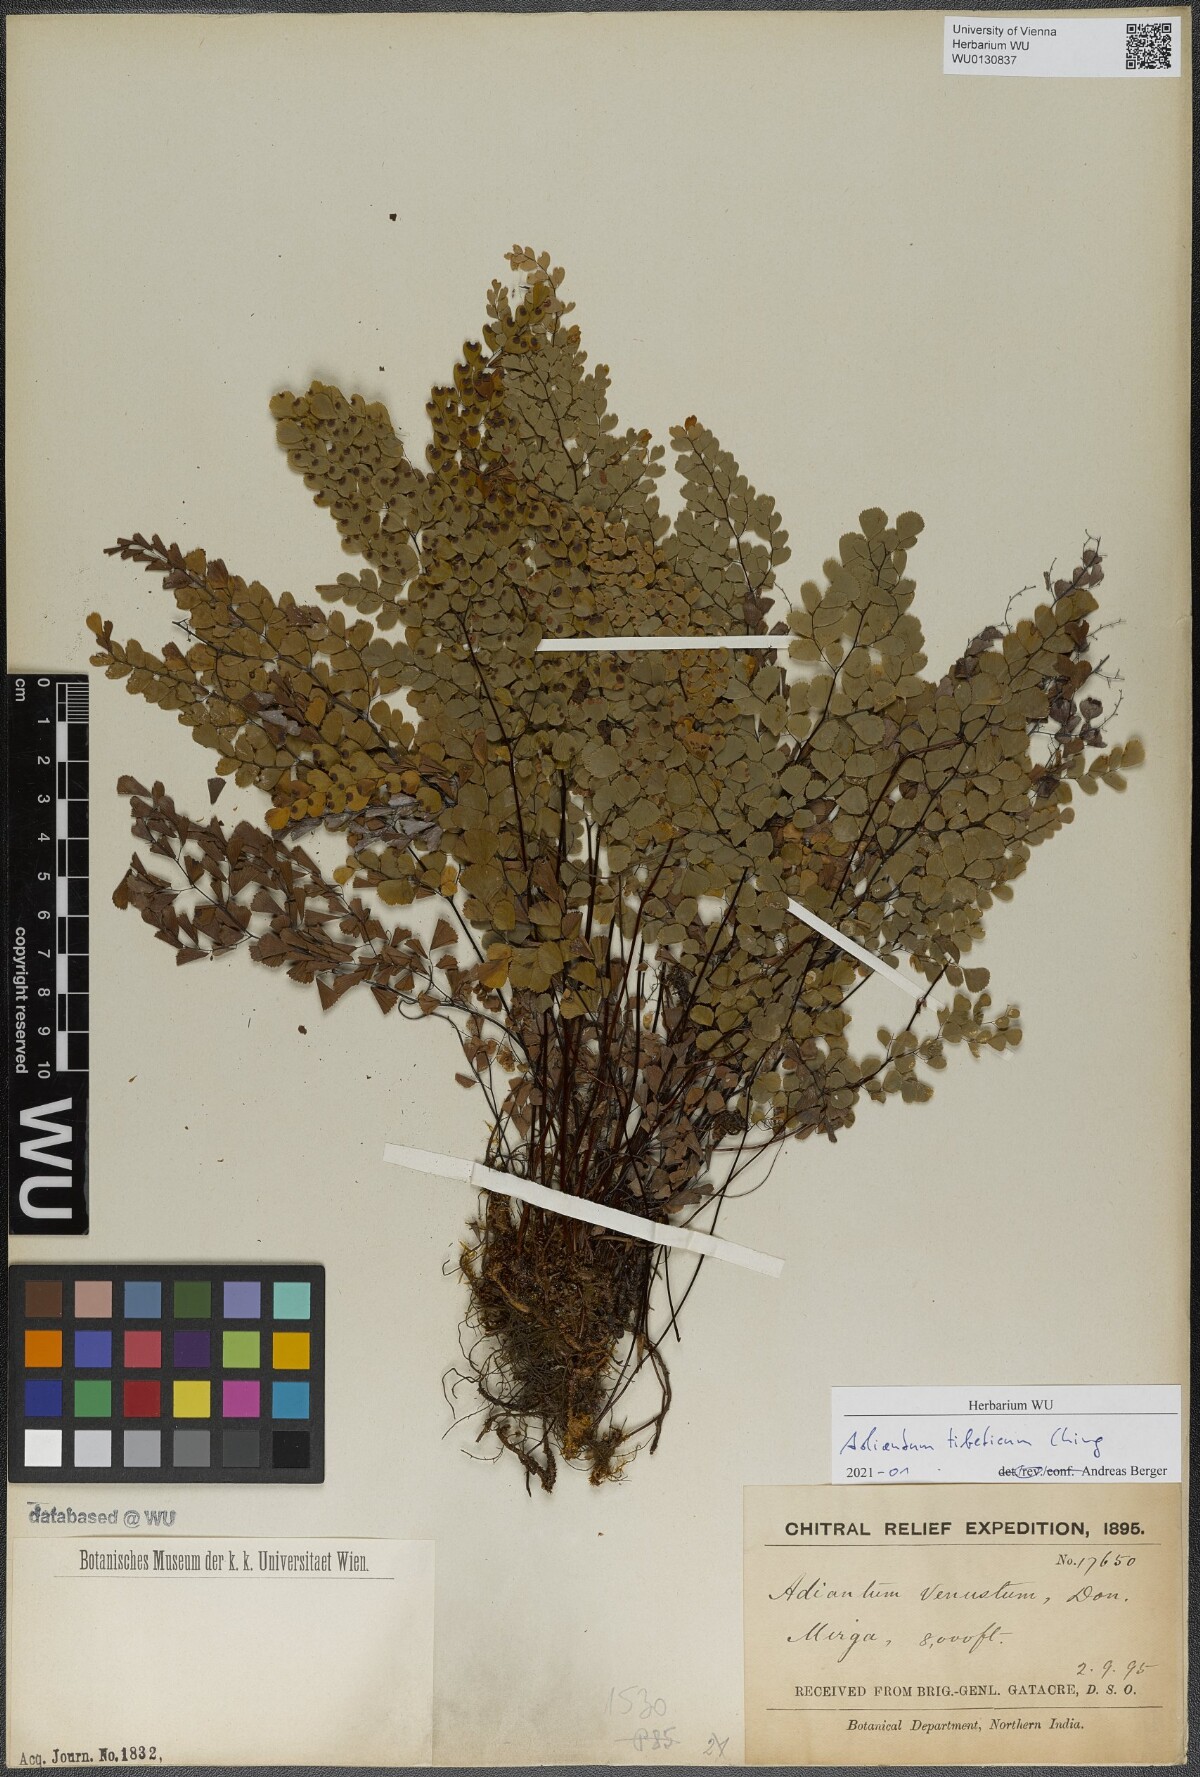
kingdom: Plantae
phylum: Tracheophyta
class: Polypodiopsida
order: Polypodiales
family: Pteridaceae
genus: Adiantum
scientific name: Adiantum tibeticum
